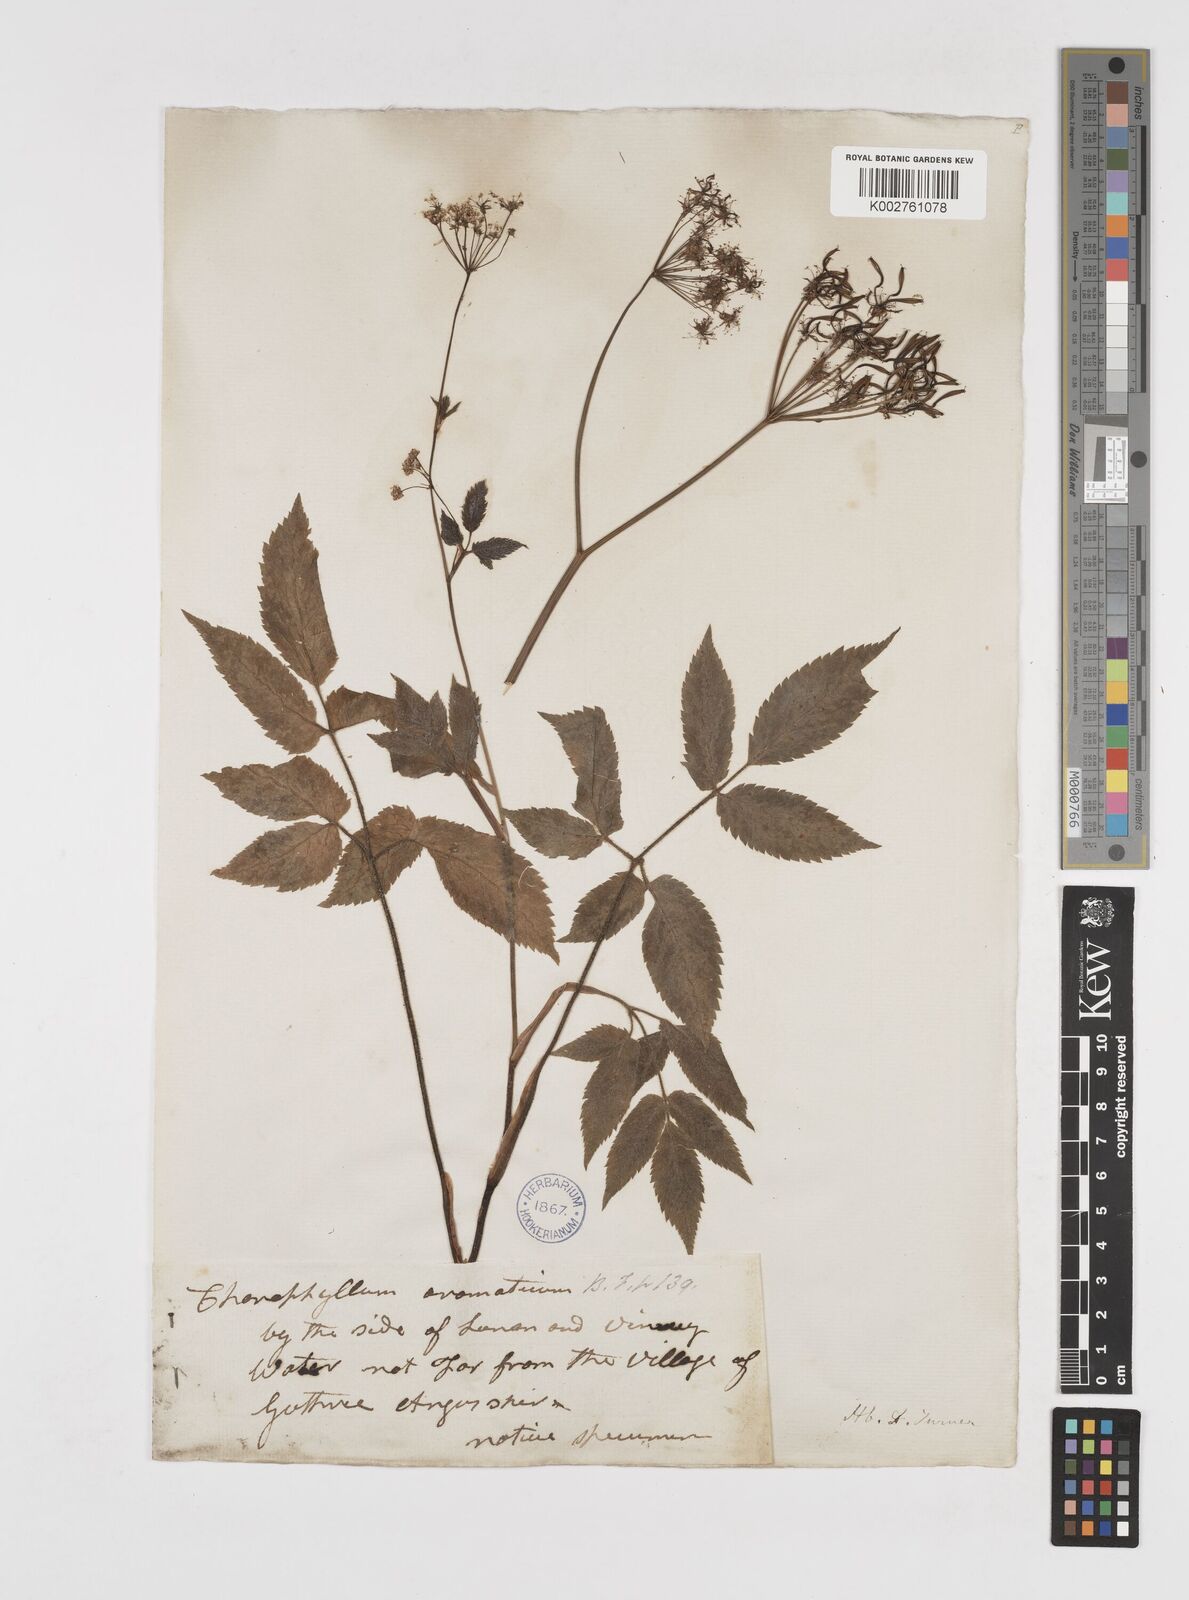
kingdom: Plantae
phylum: Tracheophyta
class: Magnoliopsida
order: Apiales
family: Apiaceae
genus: Chaerophyllum
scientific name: Chaerophyllum aromaticum
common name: Broadleaf chervil
